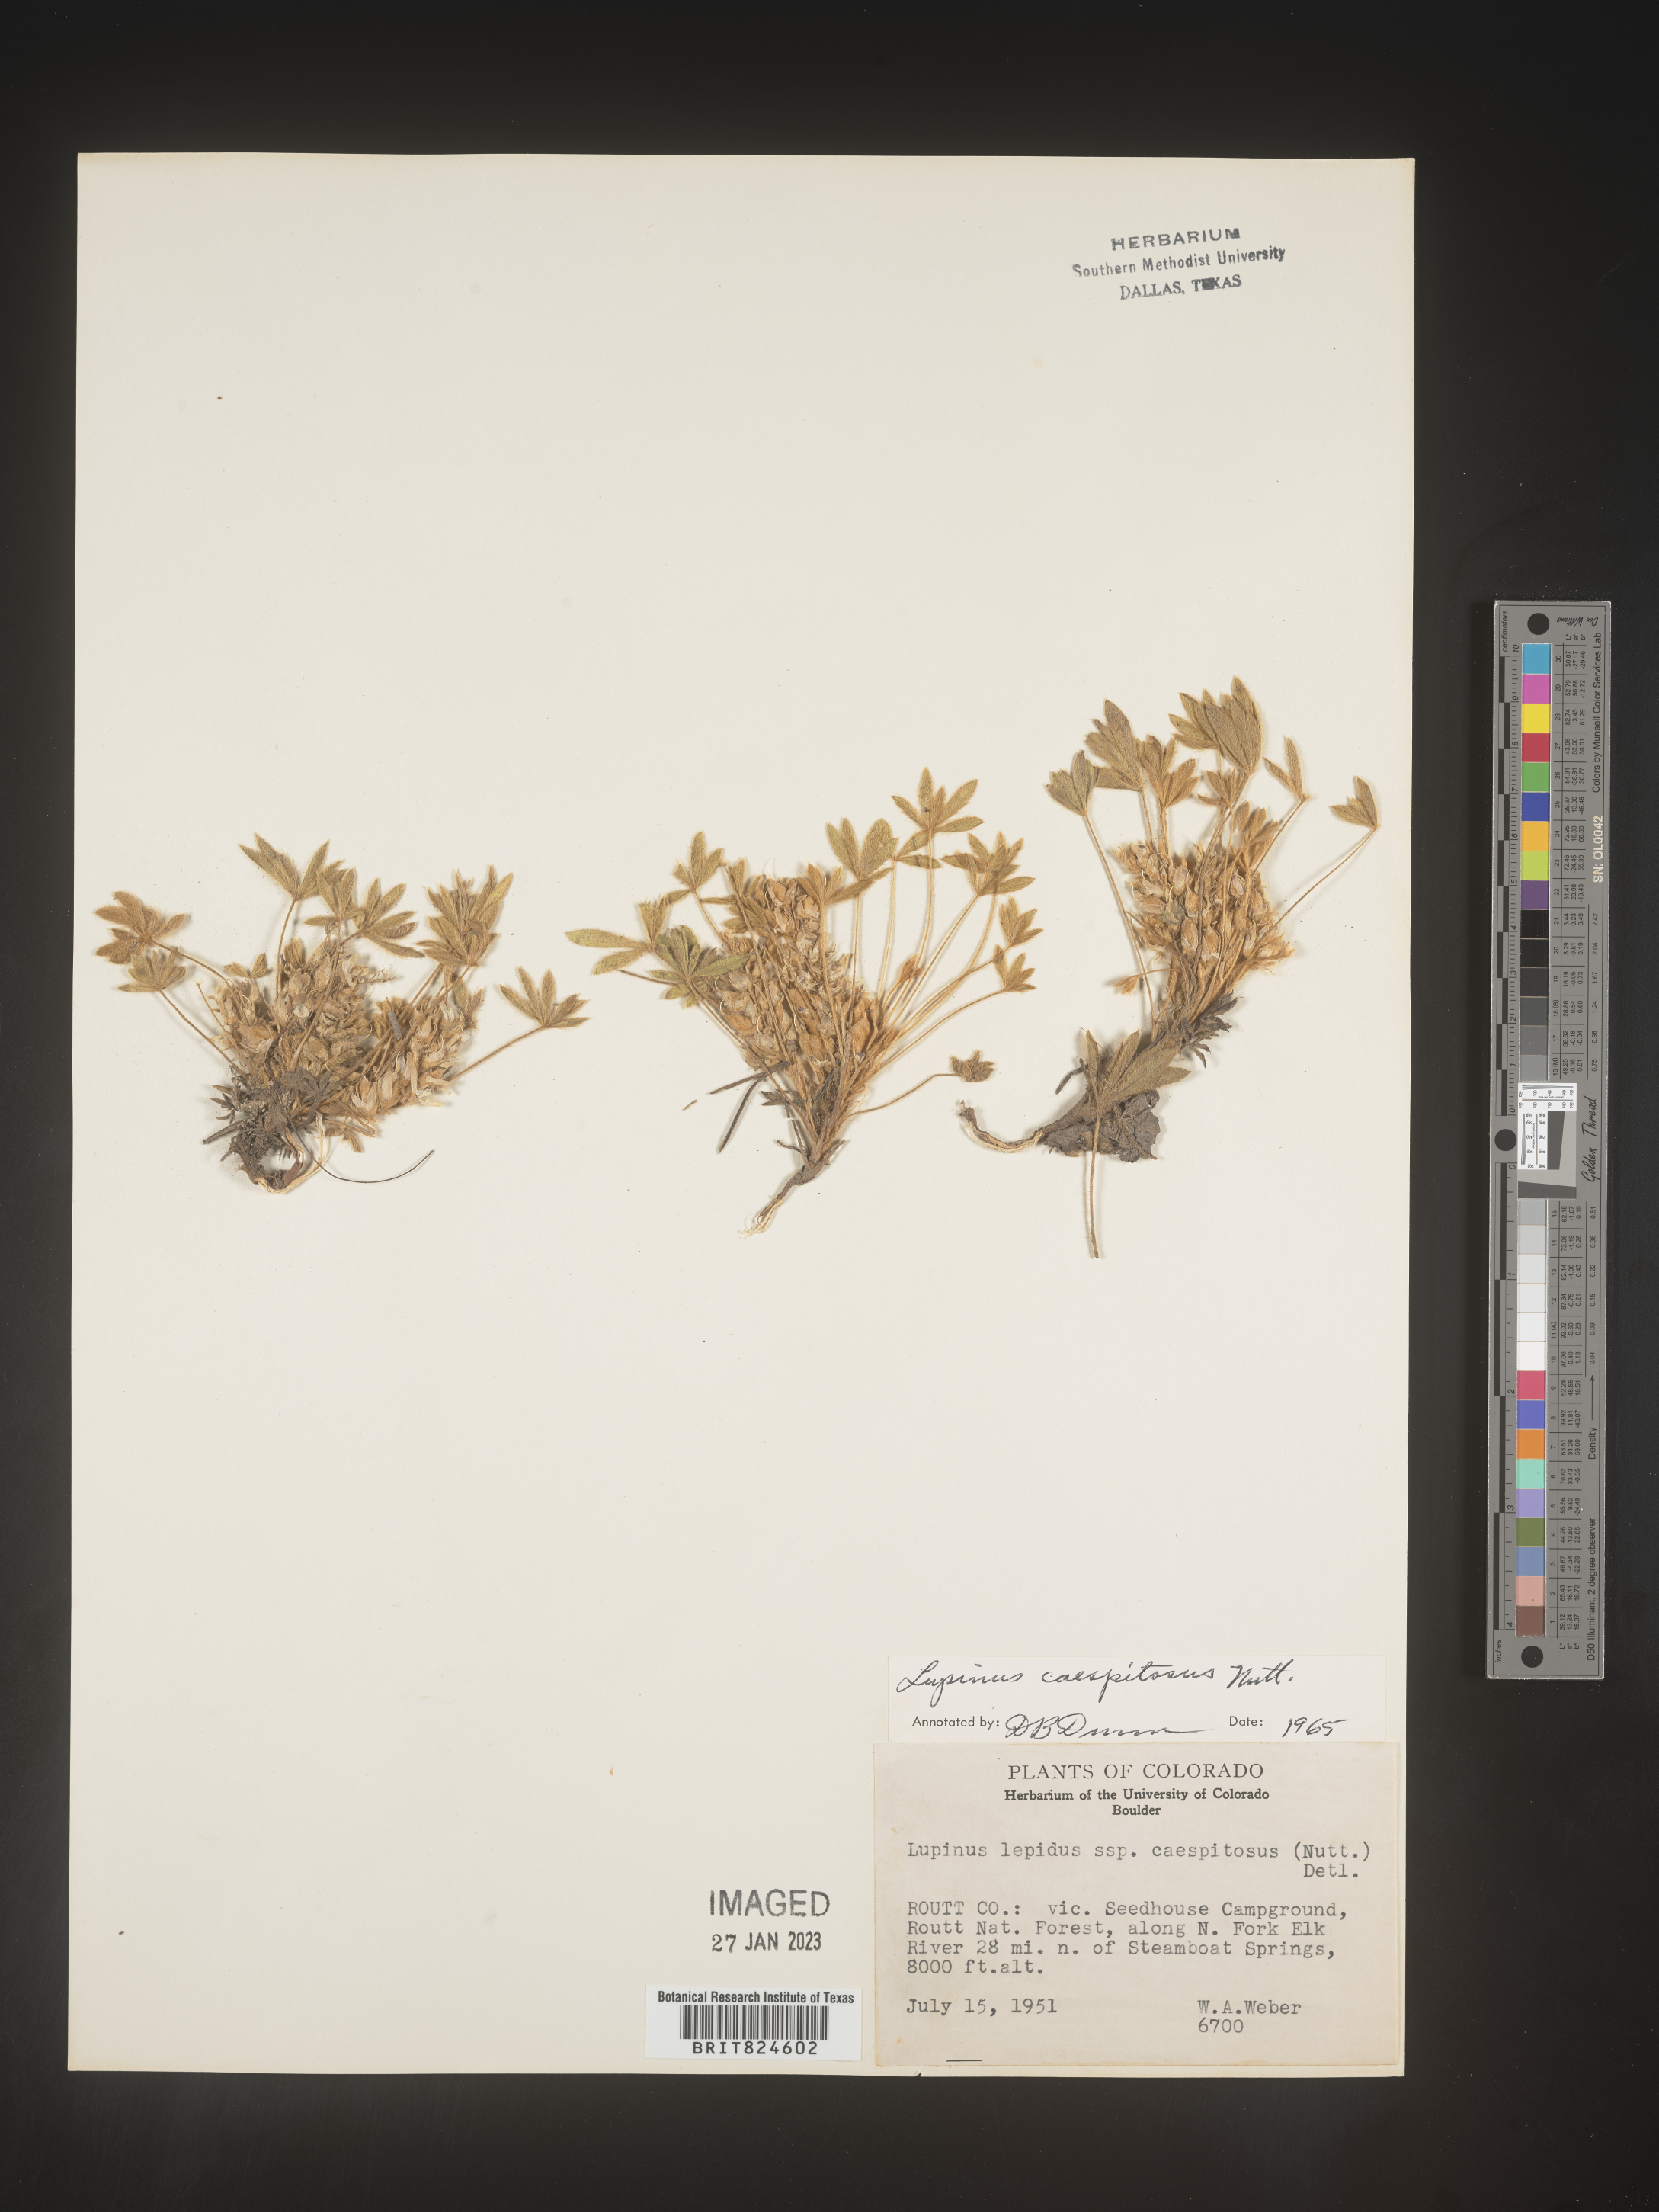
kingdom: Plantae
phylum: Tracheophyta
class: Magnoliopsida
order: Fabales
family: Fabaceae
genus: Lupinus
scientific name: Lupinus caespitosus
